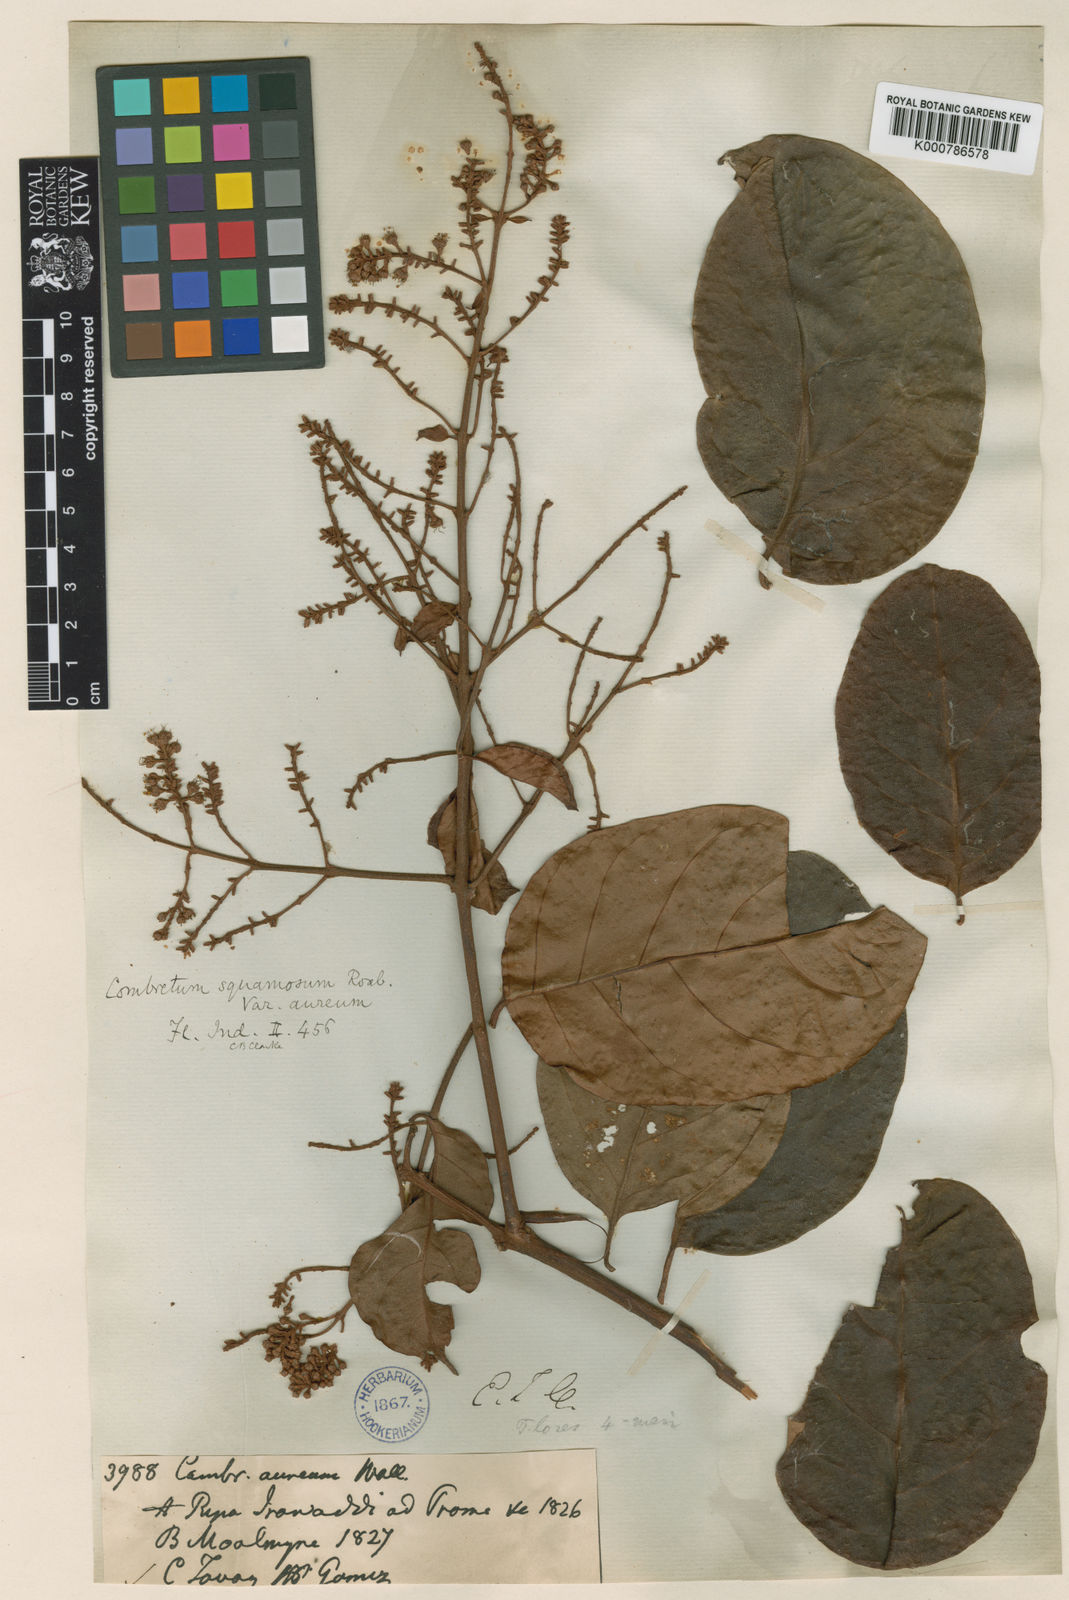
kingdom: Plantae
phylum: Tracheophyta
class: Magnoliopsida
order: Myrtales
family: Combretaceae
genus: Combretum
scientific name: Combretum punctatum
